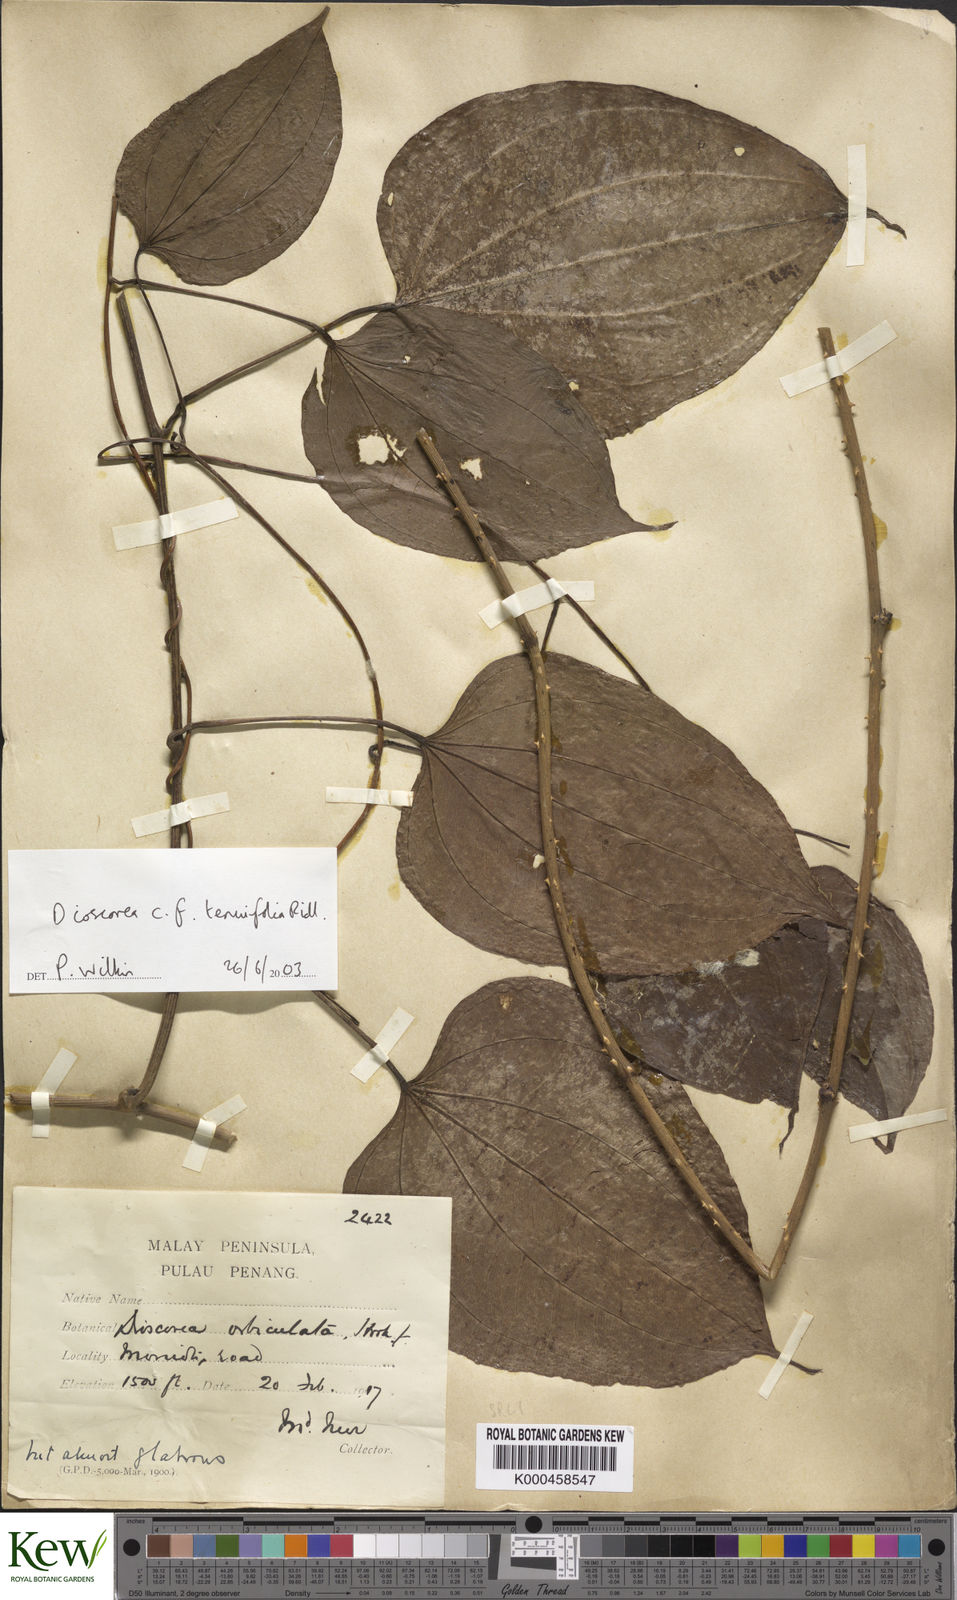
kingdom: Plantae
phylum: Tracheophyta
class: Liliopsida
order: Dioscoreales
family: Dioscoreaceae
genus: Dioscorea
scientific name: Dioscorea tenuifolia
